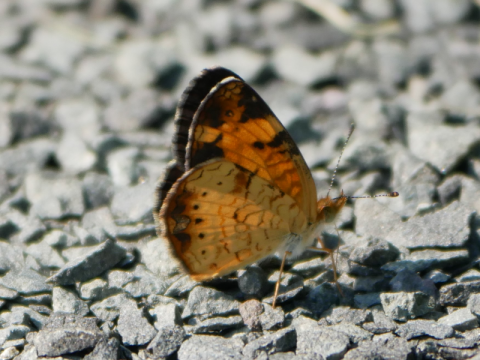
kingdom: Animalia
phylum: Arthropoda
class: Insecta
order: Lepidoptera
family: Nymphalidae
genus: Phyciodes
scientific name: Phyciodes tharos
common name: Northern Crescent
